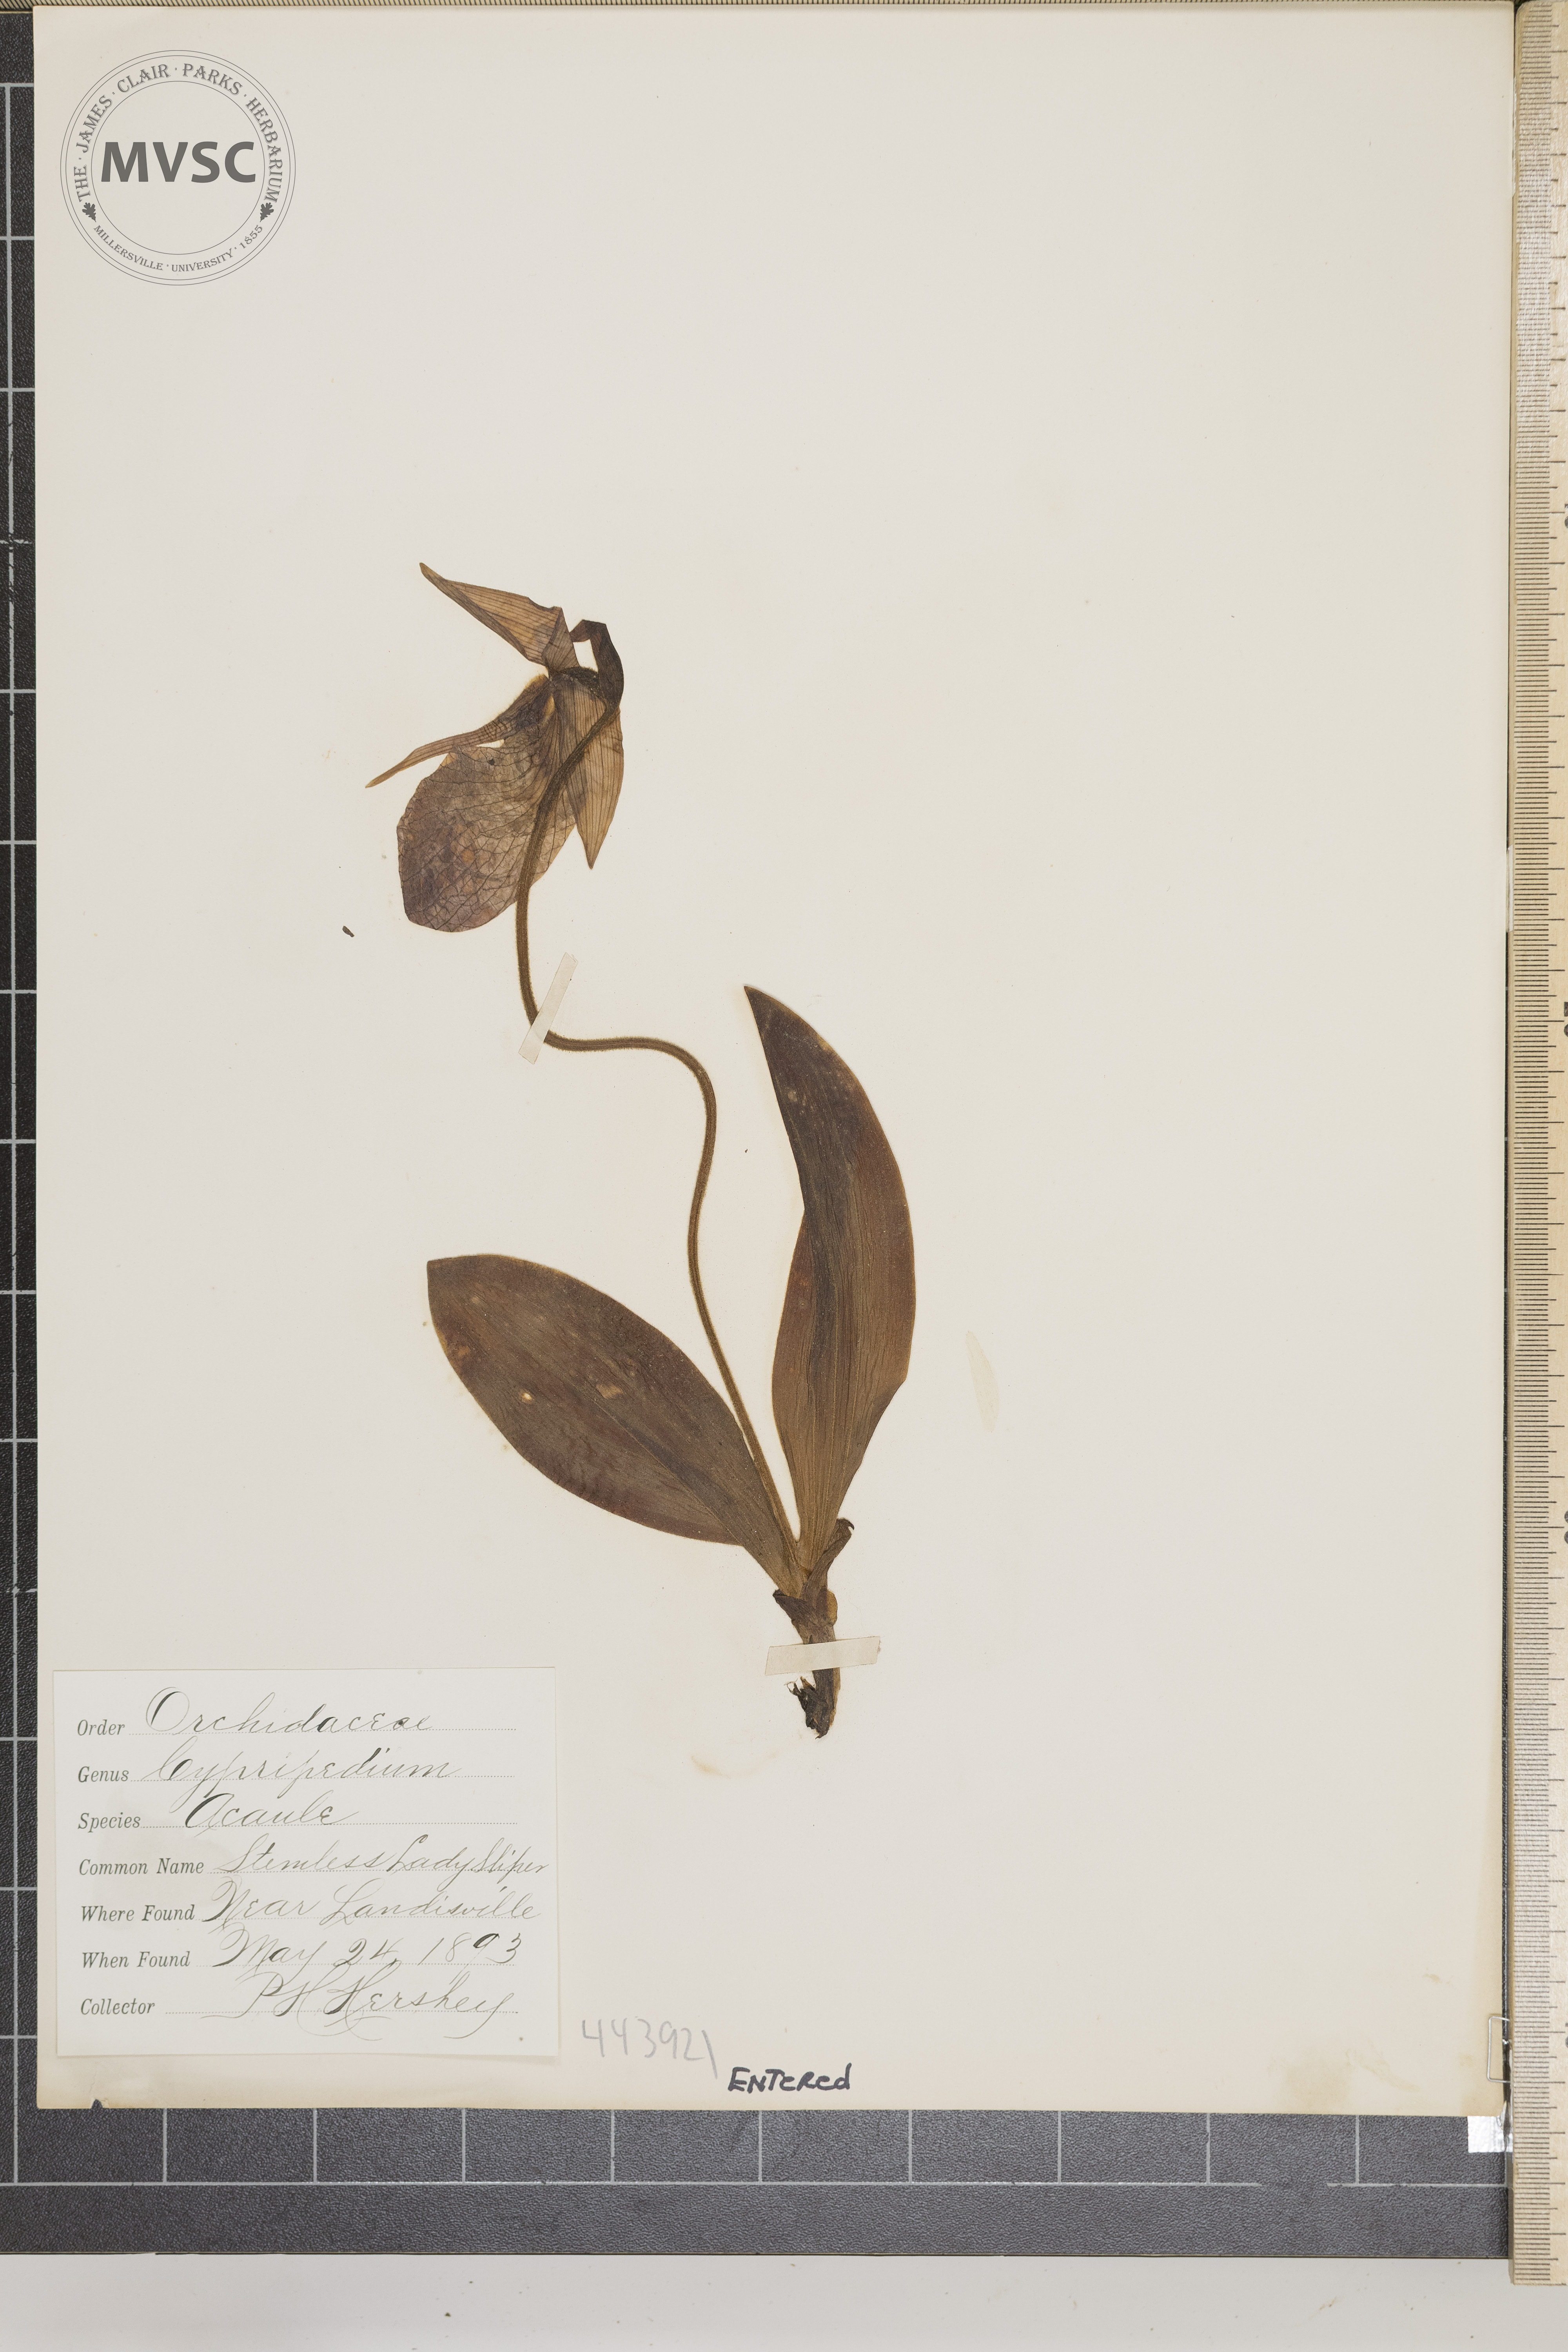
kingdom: Plantae
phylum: Tracheophyta
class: Liliopsida
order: Asparagales
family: Orchidaceae
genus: Cypripedium
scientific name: Cypripedium acaule
